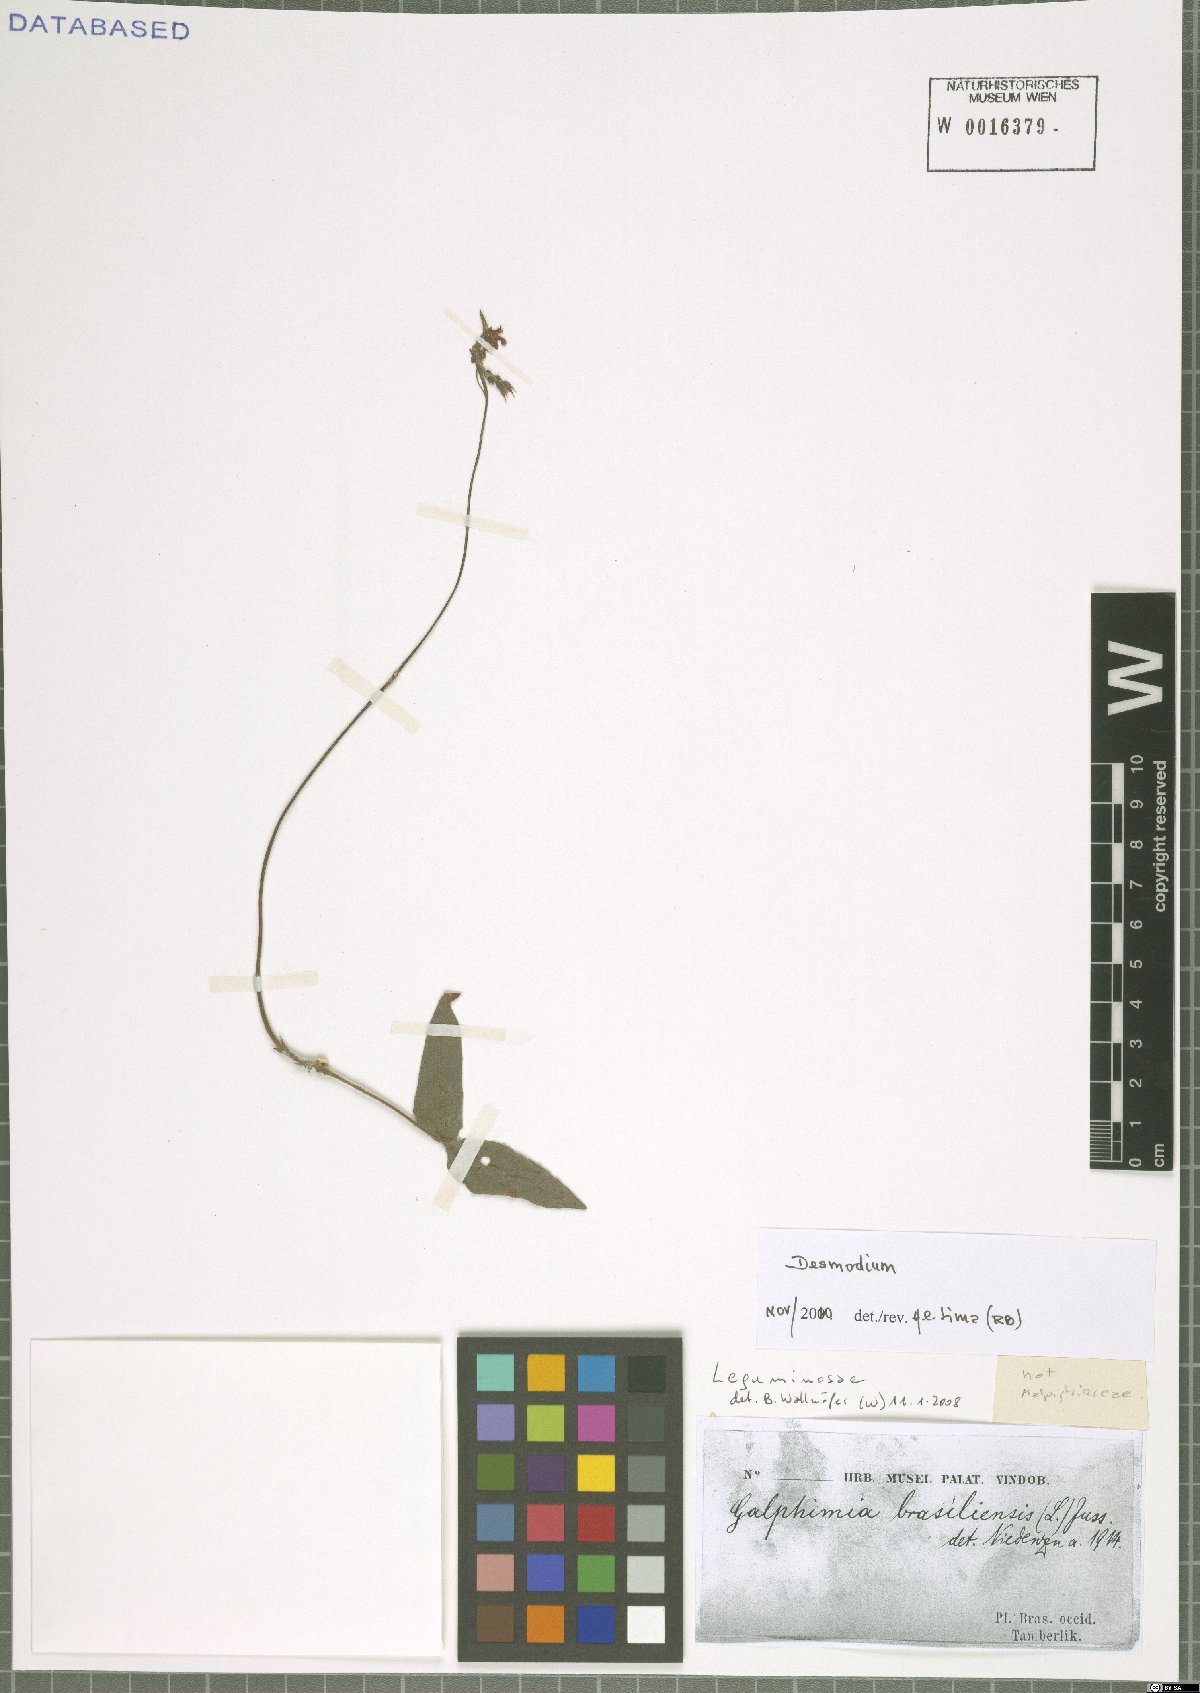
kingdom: Plantae
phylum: Tracheophyta
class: Magnoliopsida
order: Fabales
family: Fabaceae
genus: Desmodium
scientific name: Desmodium
